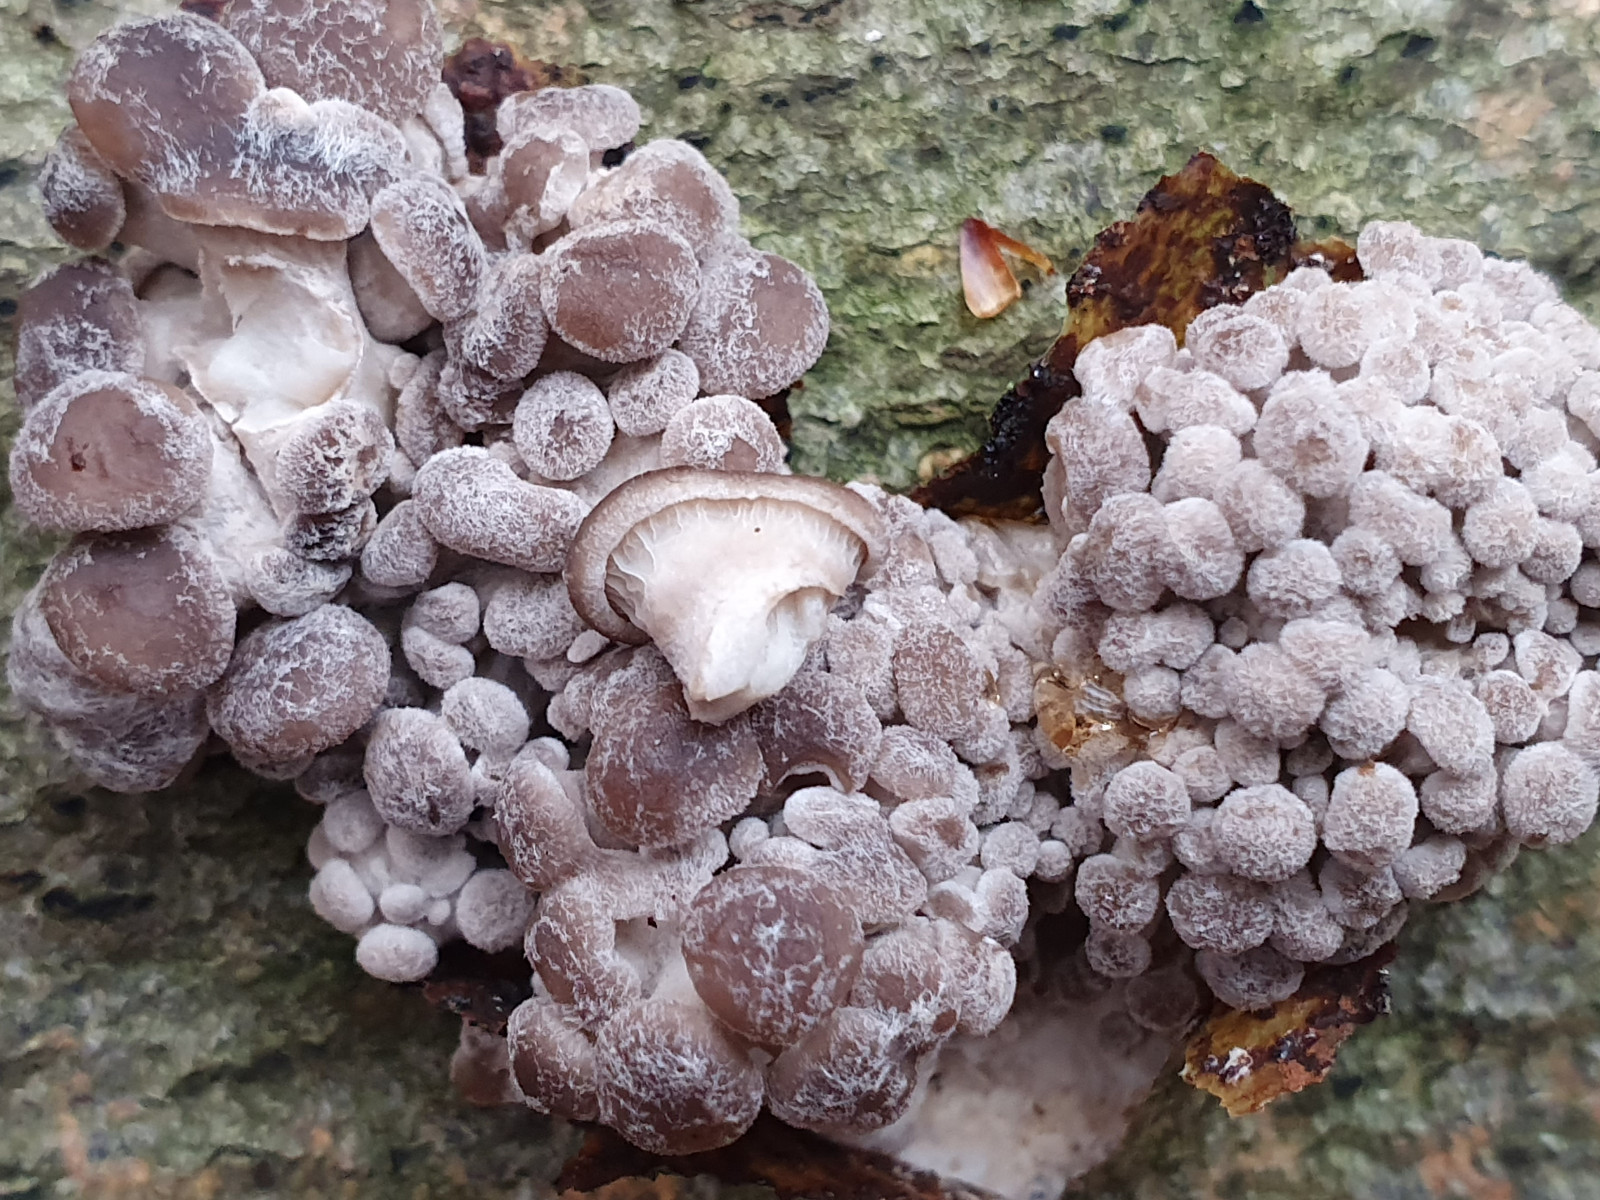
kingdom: Fungi
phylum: Basidiomycota
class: Agaricomycetes
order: Agaricales
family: Pleurotaceae
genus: Pleurotus
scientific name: Pleurotus ostreatus
